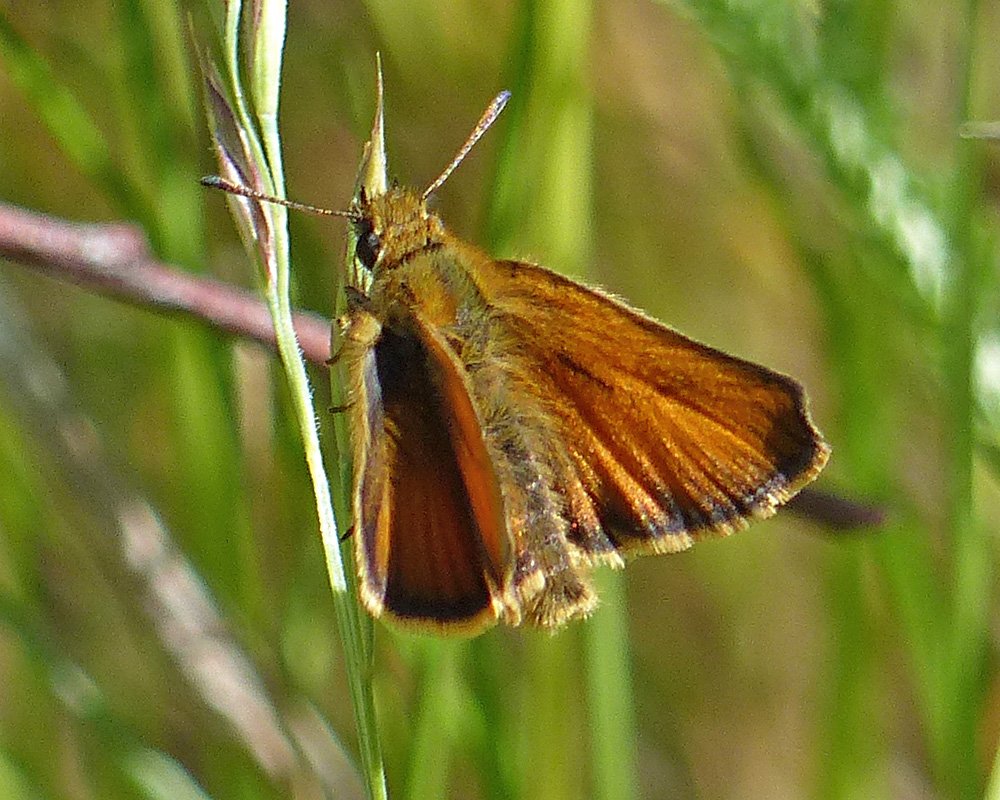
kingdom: Animalia
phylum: Arthropoda
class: Insecta
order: Lepidoptera
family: Hesperiidae
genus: Thymelicus
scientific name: Thymelicus lineola
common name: European Skipper
